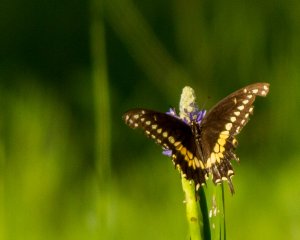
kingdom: Animalia
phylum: Arthropoda
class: Insecta
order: Lepidoptera
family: Papilionidae
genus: Papilio
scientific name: Papilio polyxenes
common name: Black Swallowtail
